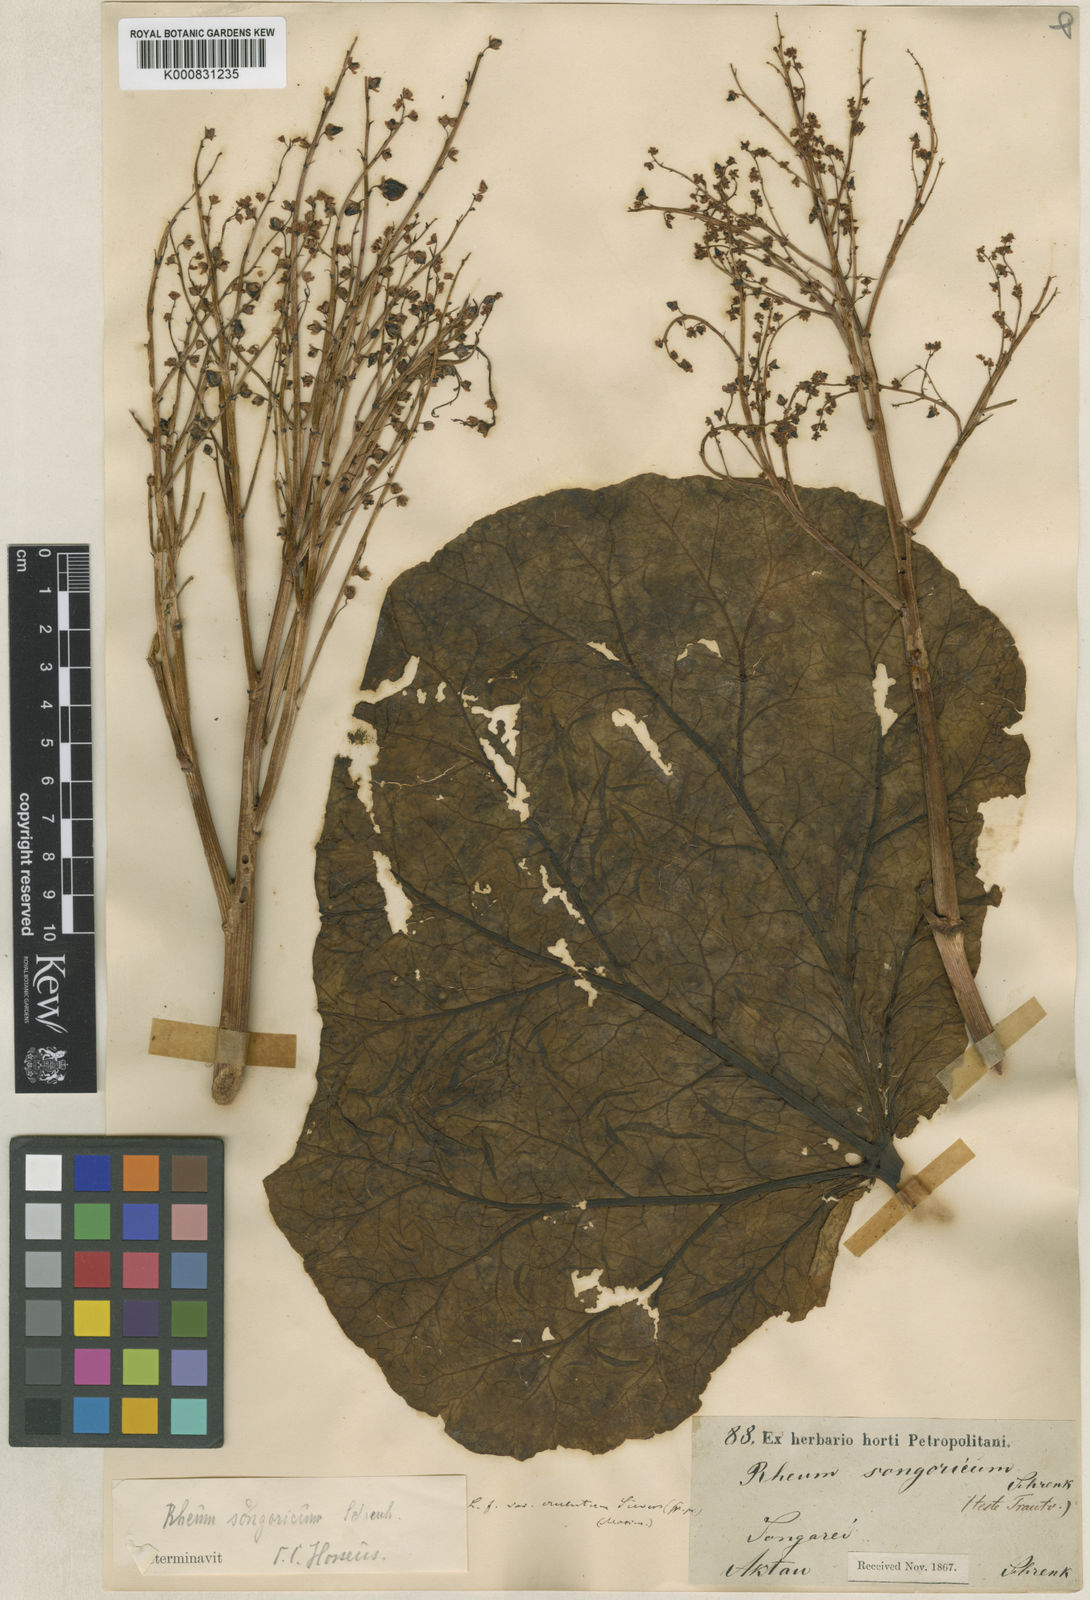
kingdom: Plantae
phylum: Tracheophyta
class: Magnoliopsida
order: Caryophyllales
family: Polygonaceae
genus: Rheum
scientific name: Rheum tataricum
